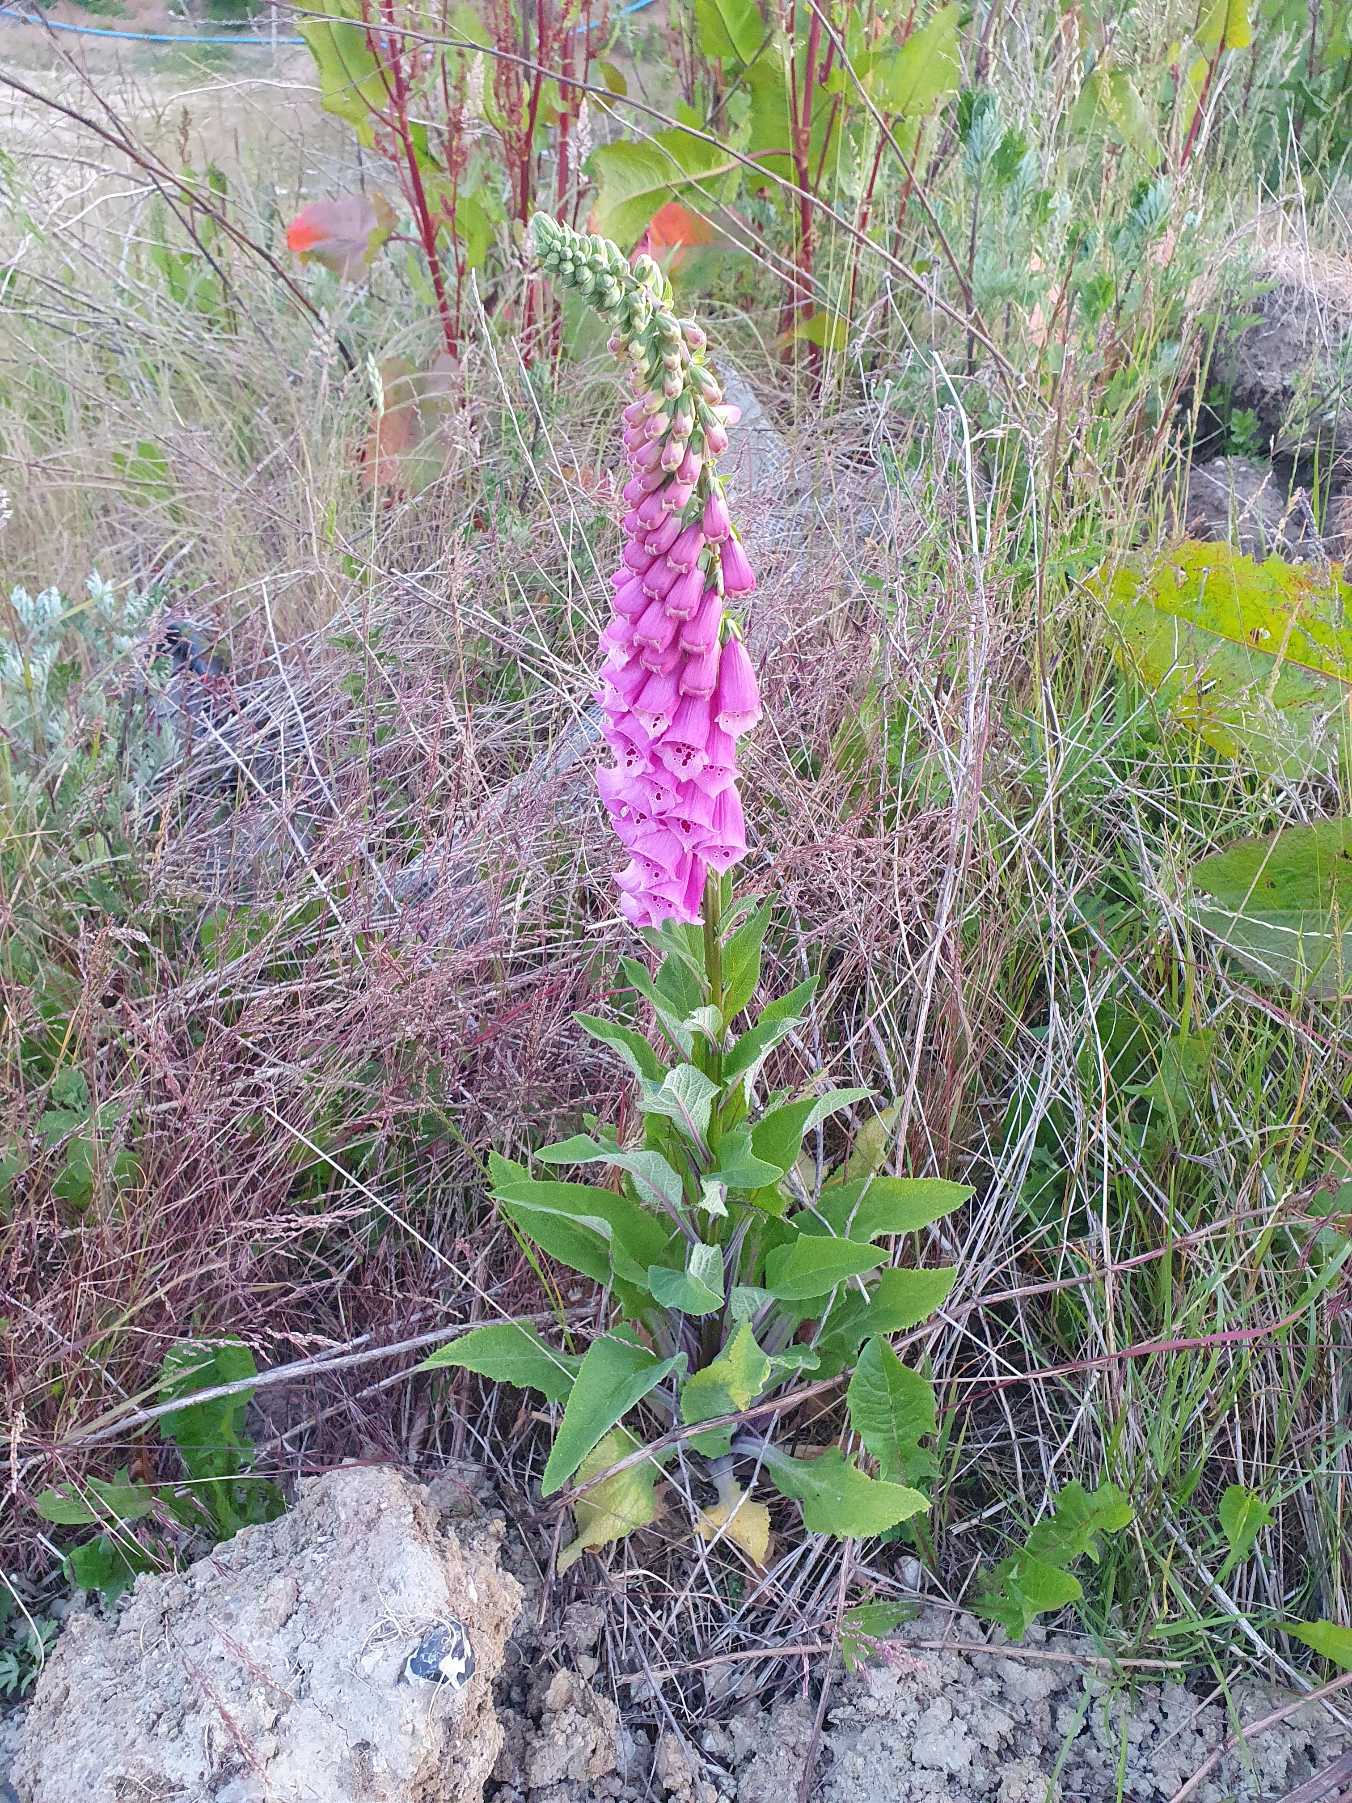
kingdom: Plantae
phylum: Tracheophyta
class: Magnoliopsida
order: Lamiales
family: Plantaginaceae
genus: Digitalis
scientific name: Digitalis purpurea
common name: Almindelig fingerbøl
